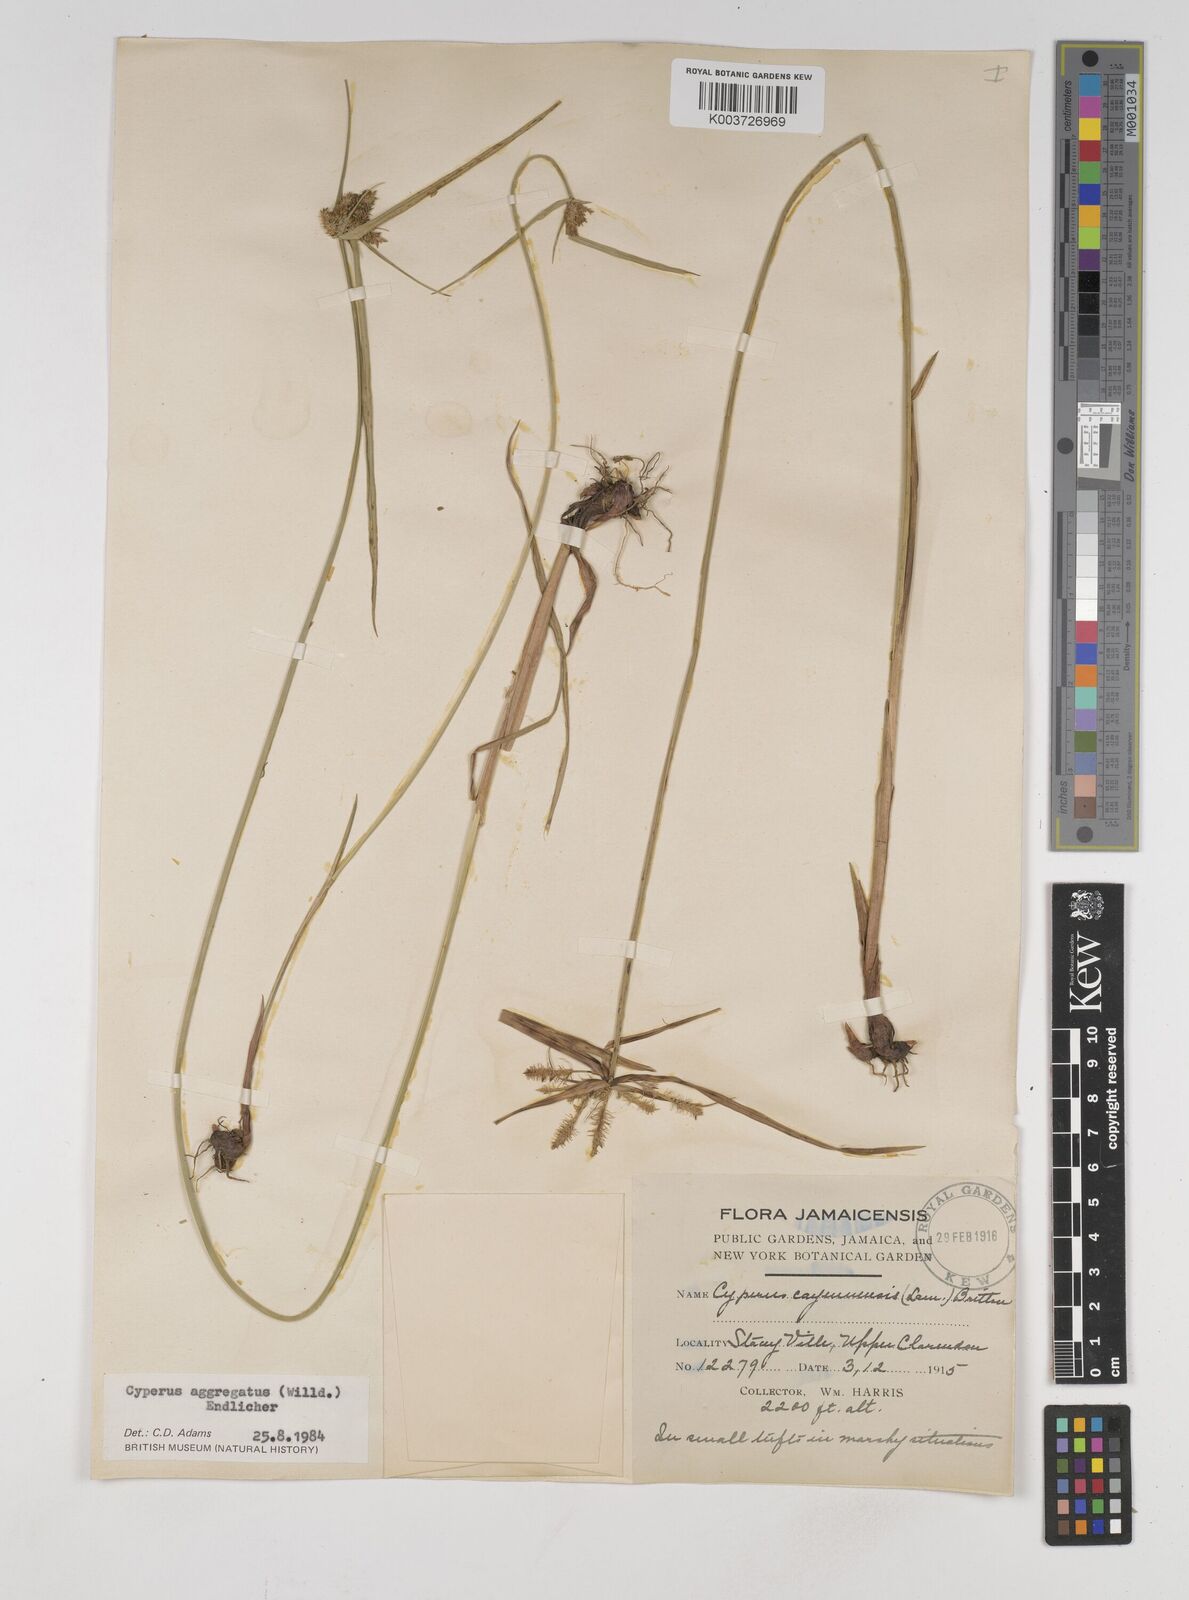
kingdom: Plantae
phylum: Tracheophyta
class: Liliopsida
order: Poales
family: Cyperaceae
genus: Cyperus
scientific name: Cyperus aggregatus
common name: Inflatedscale flatsedge
